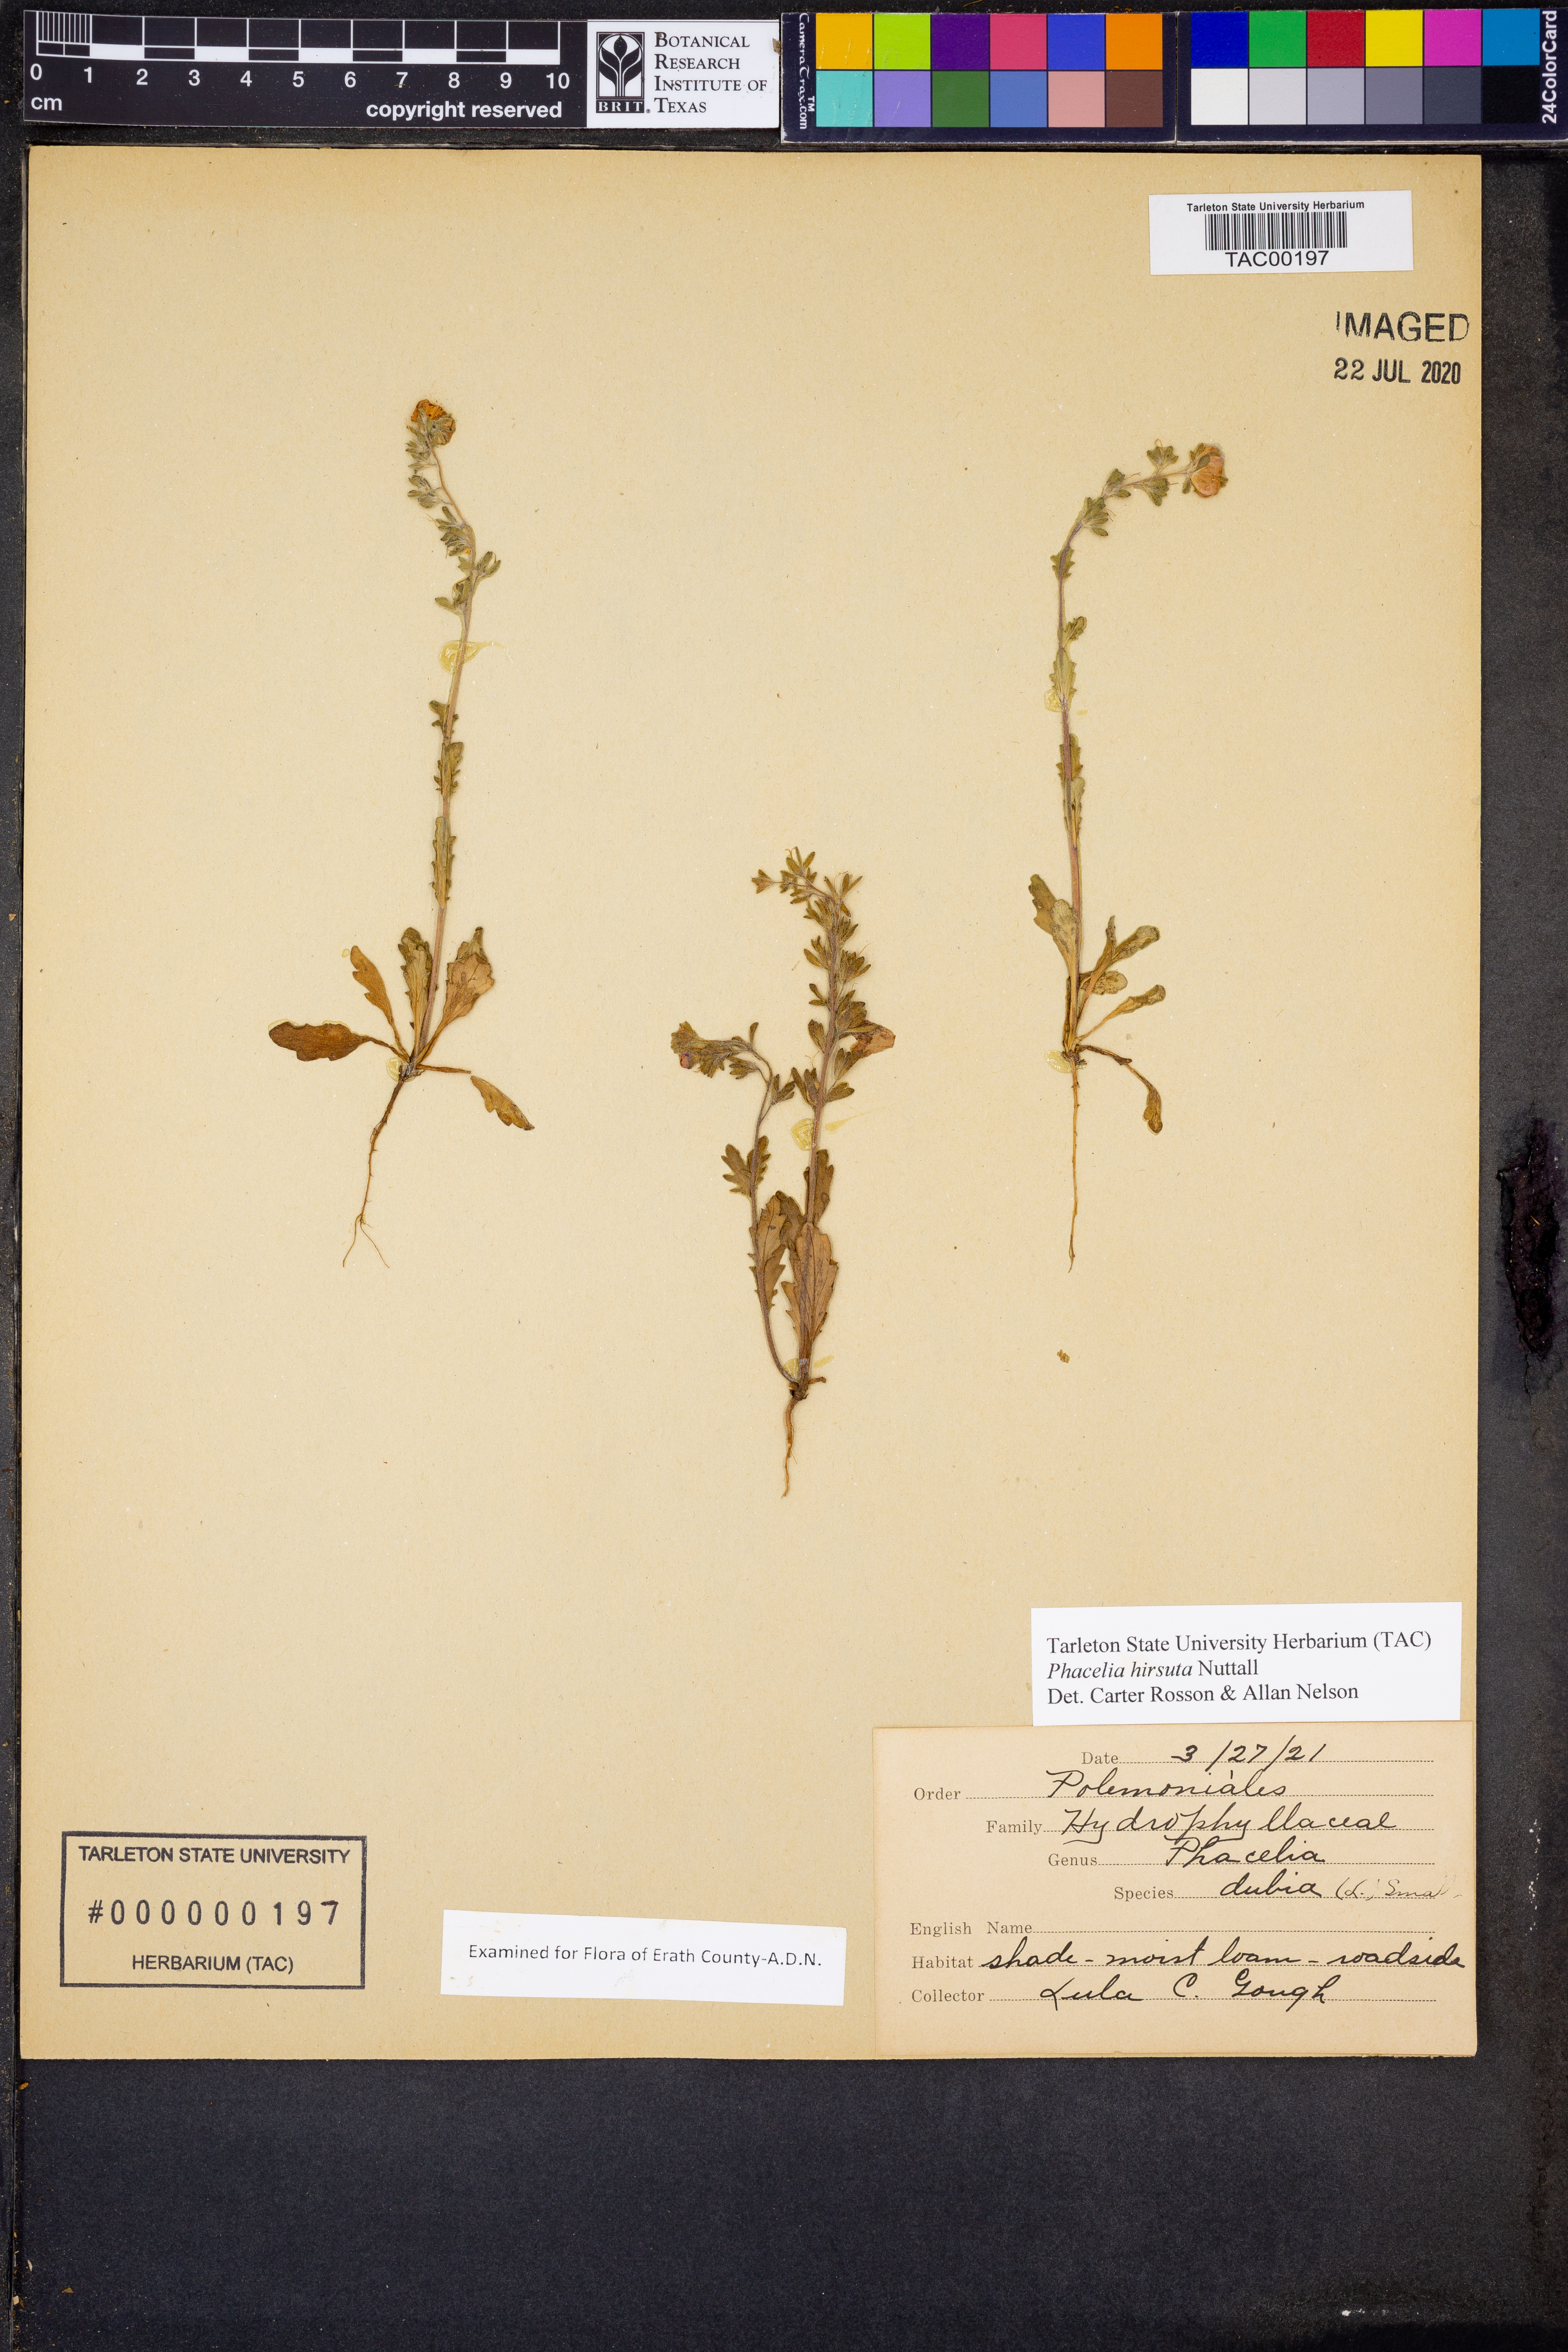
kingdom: Plantae
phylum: Tracheophyta
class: Magnoliopsida
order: Boraginales
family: Hydrophyllaceae
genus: Phacelia
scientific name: Phacelia hirsuta
